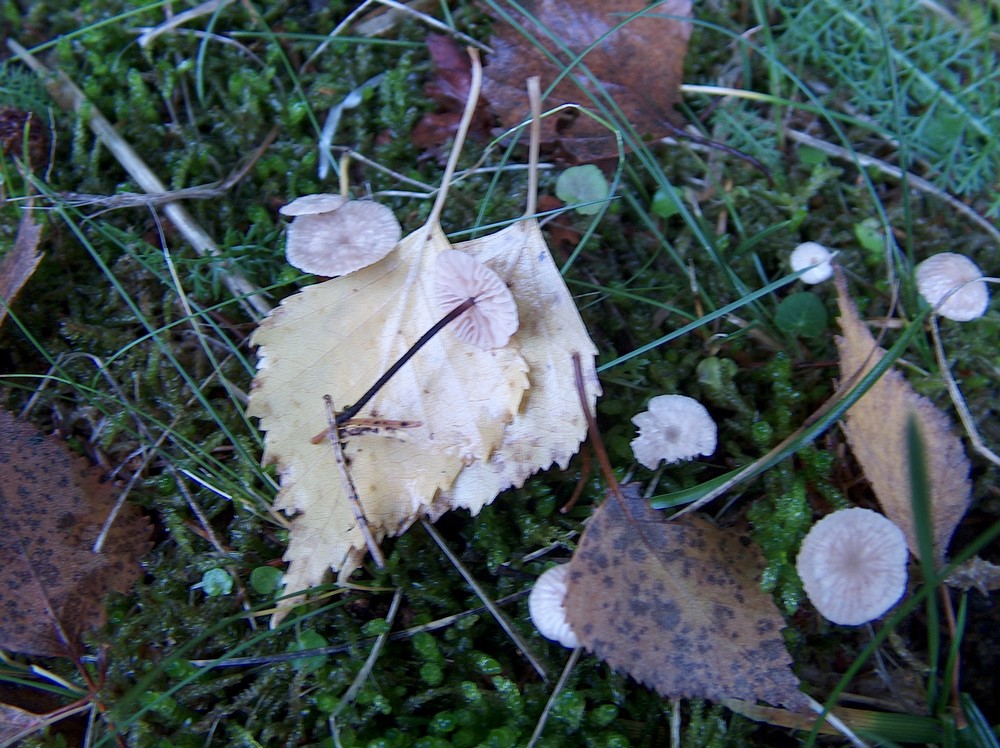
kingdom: Fungi
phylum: Basidiomycota
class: Agaricomycetes
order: Agaricales
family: Omphalotaceae
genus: Paragymnopus
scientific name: Paragymnopus perforans
